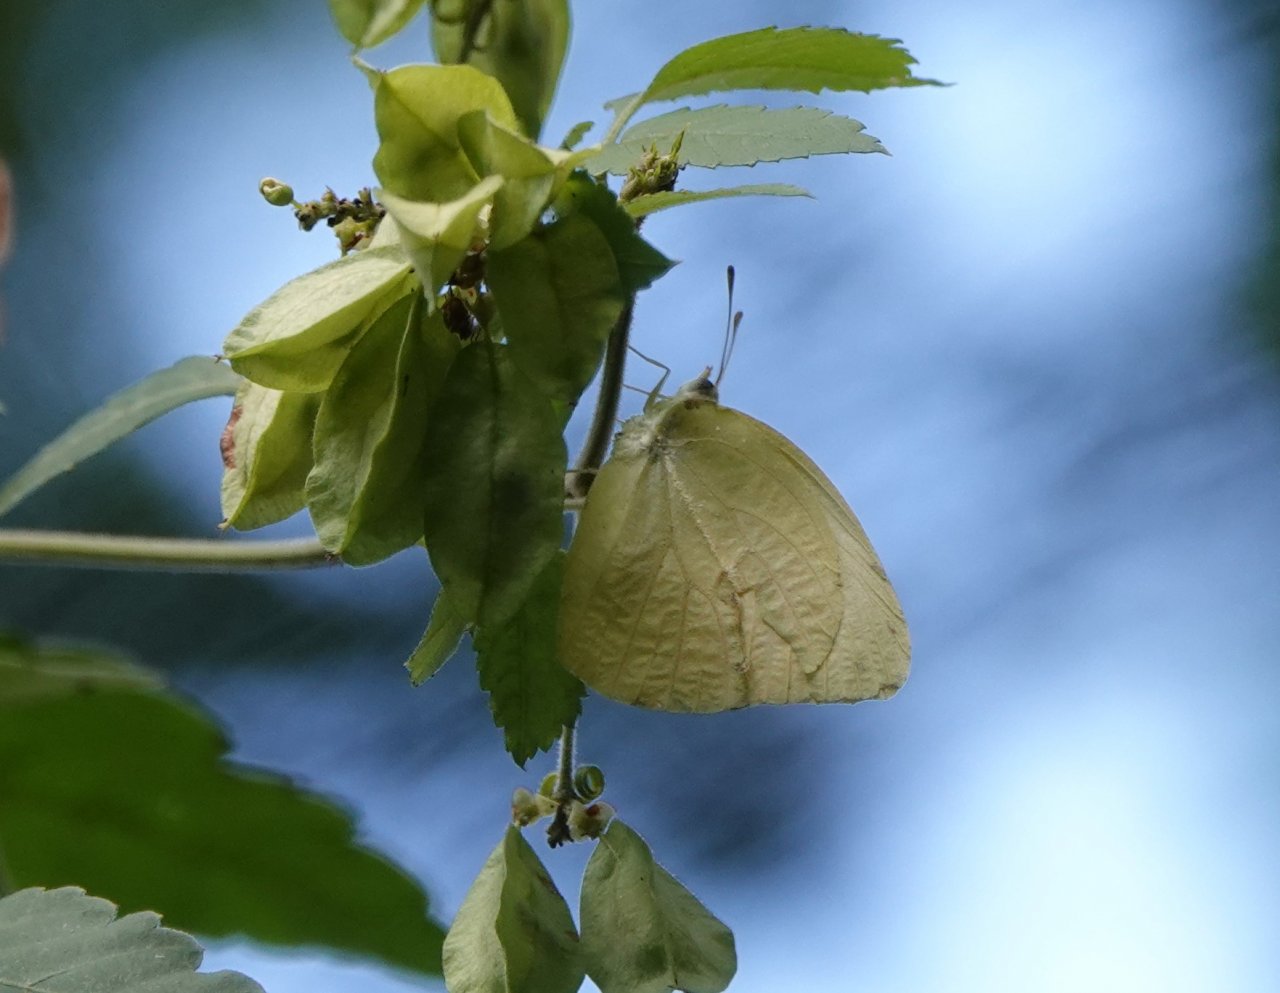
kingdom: Animalia
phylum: Arthropoda
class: Insecta
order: Lepidoptera
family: Pieridae
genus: Kricogonia
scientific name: Kricogonia lyside
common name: Lyside Sulphur
